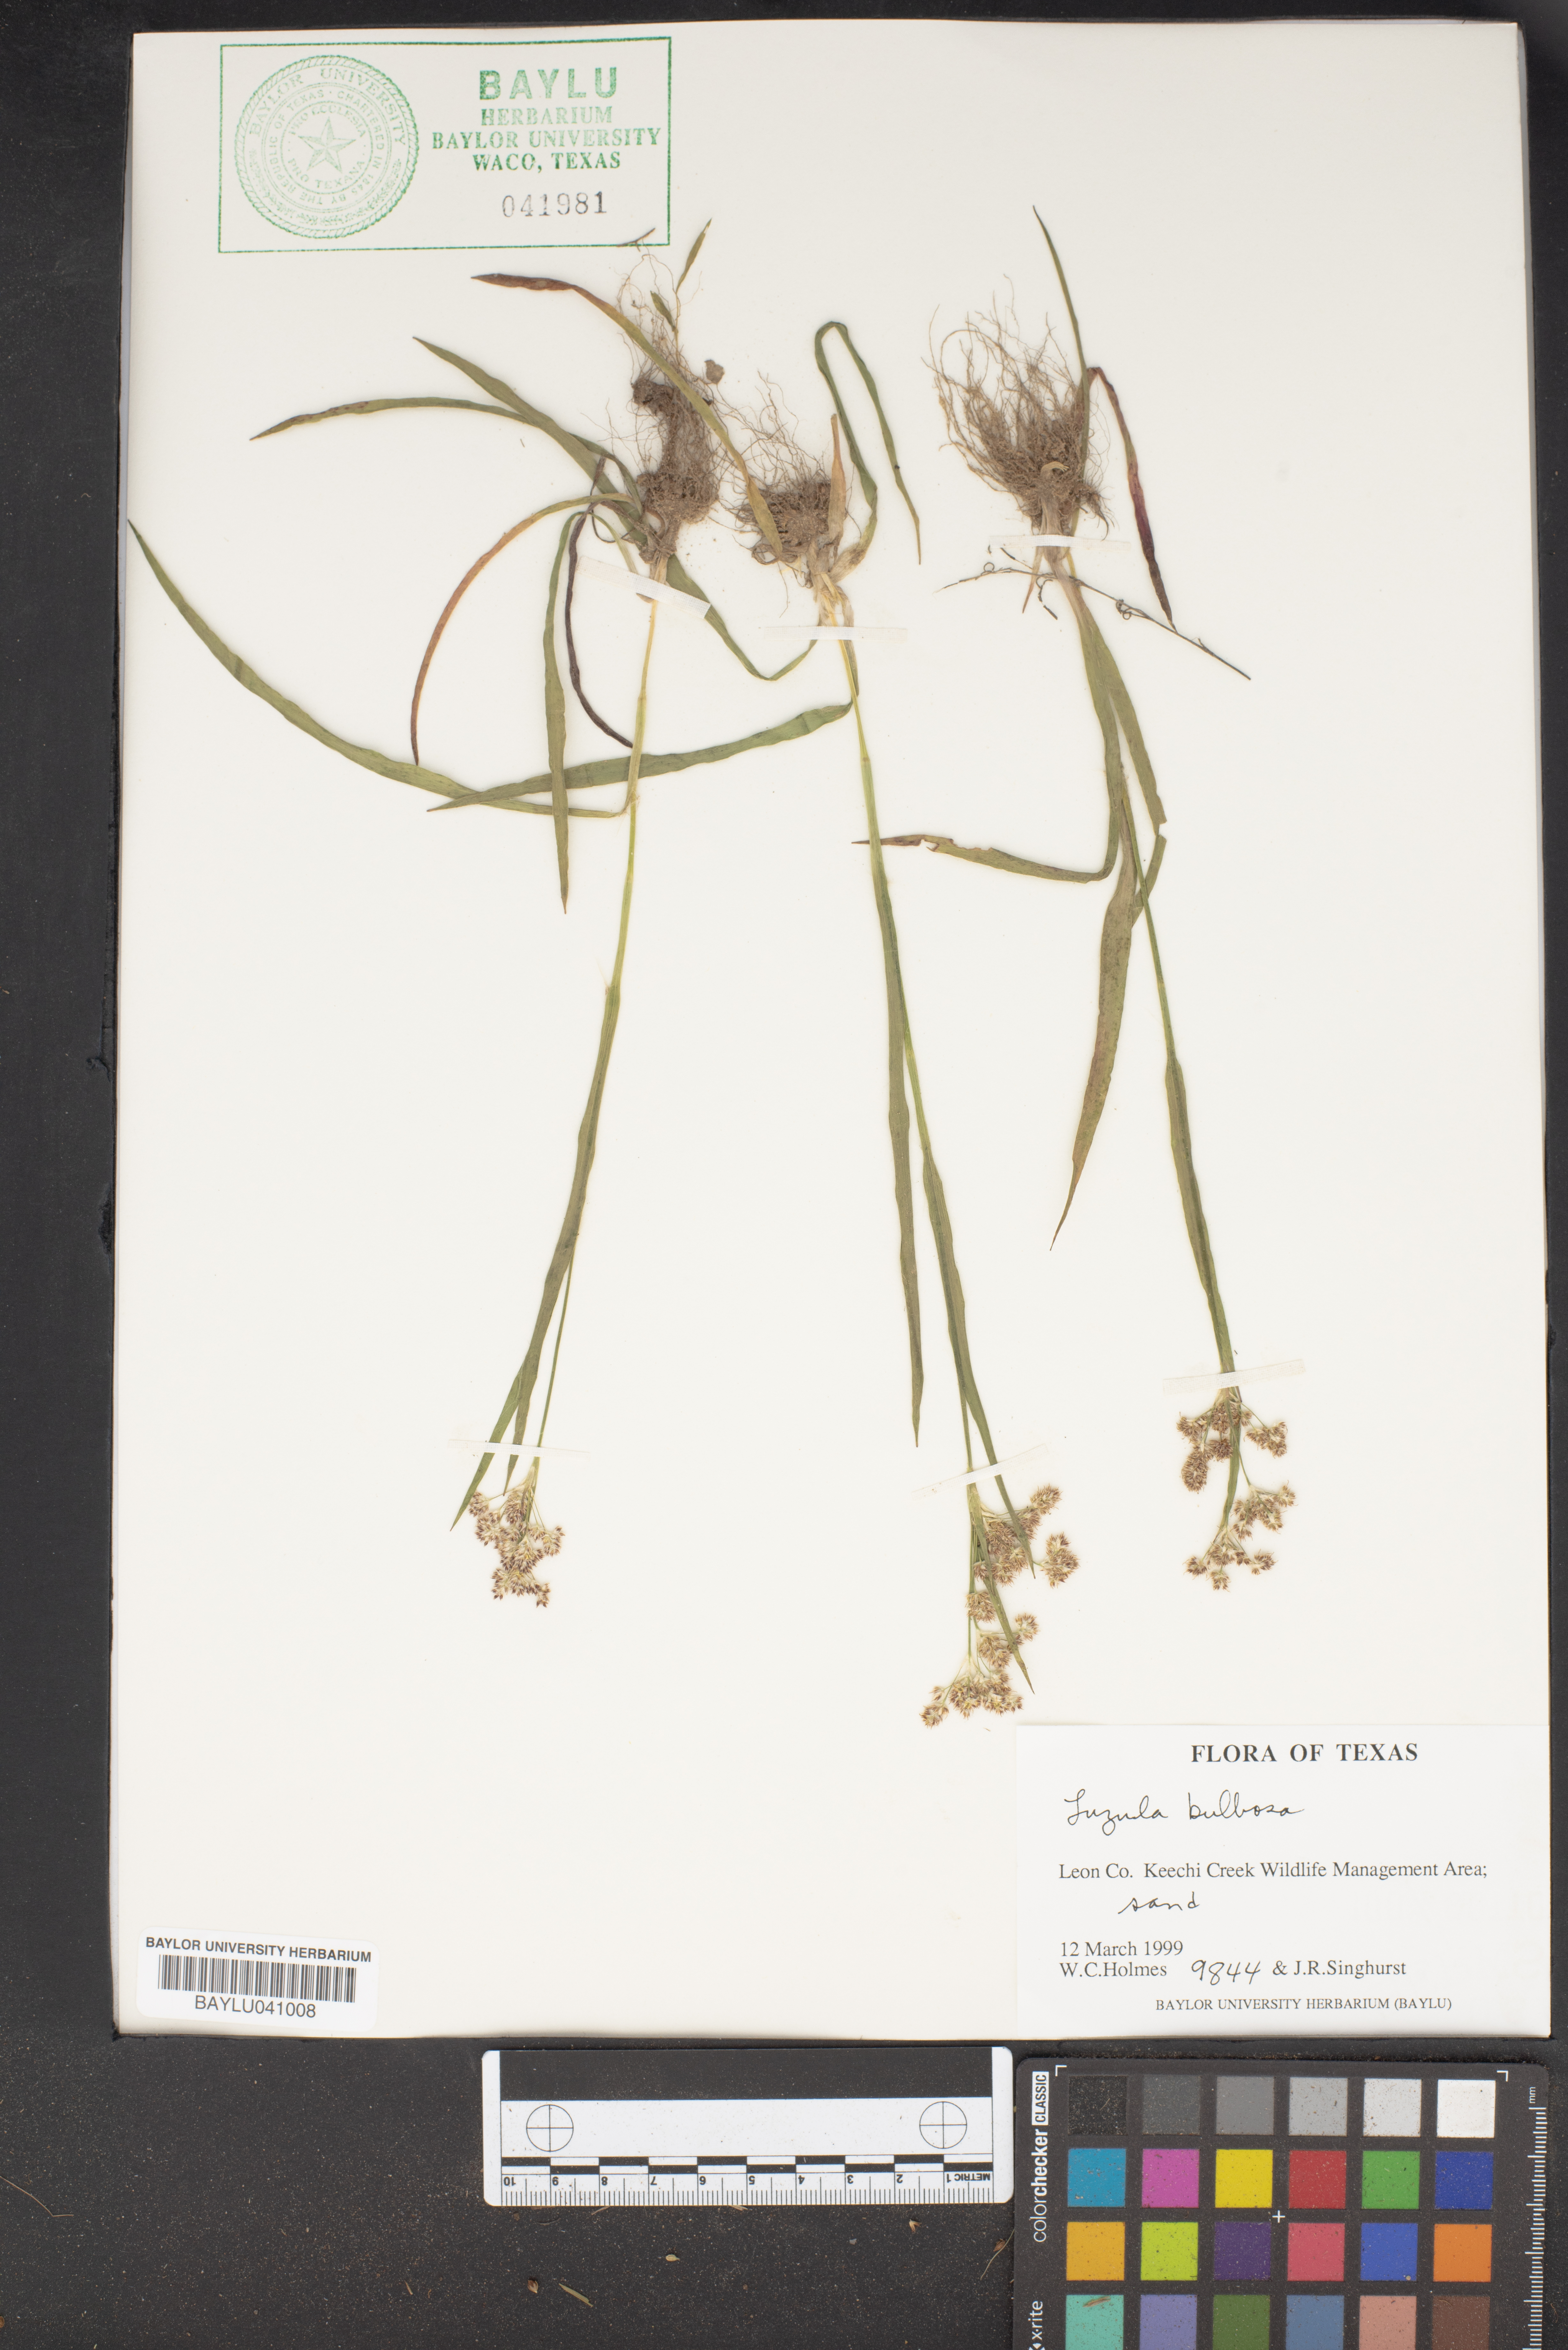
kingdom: Plantae
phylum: Tracheophyta
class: Liliopsida
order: Poales
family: Juncaceae
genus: Luzula
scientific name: Luzula bulbosa
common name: Bulbous woodrush
